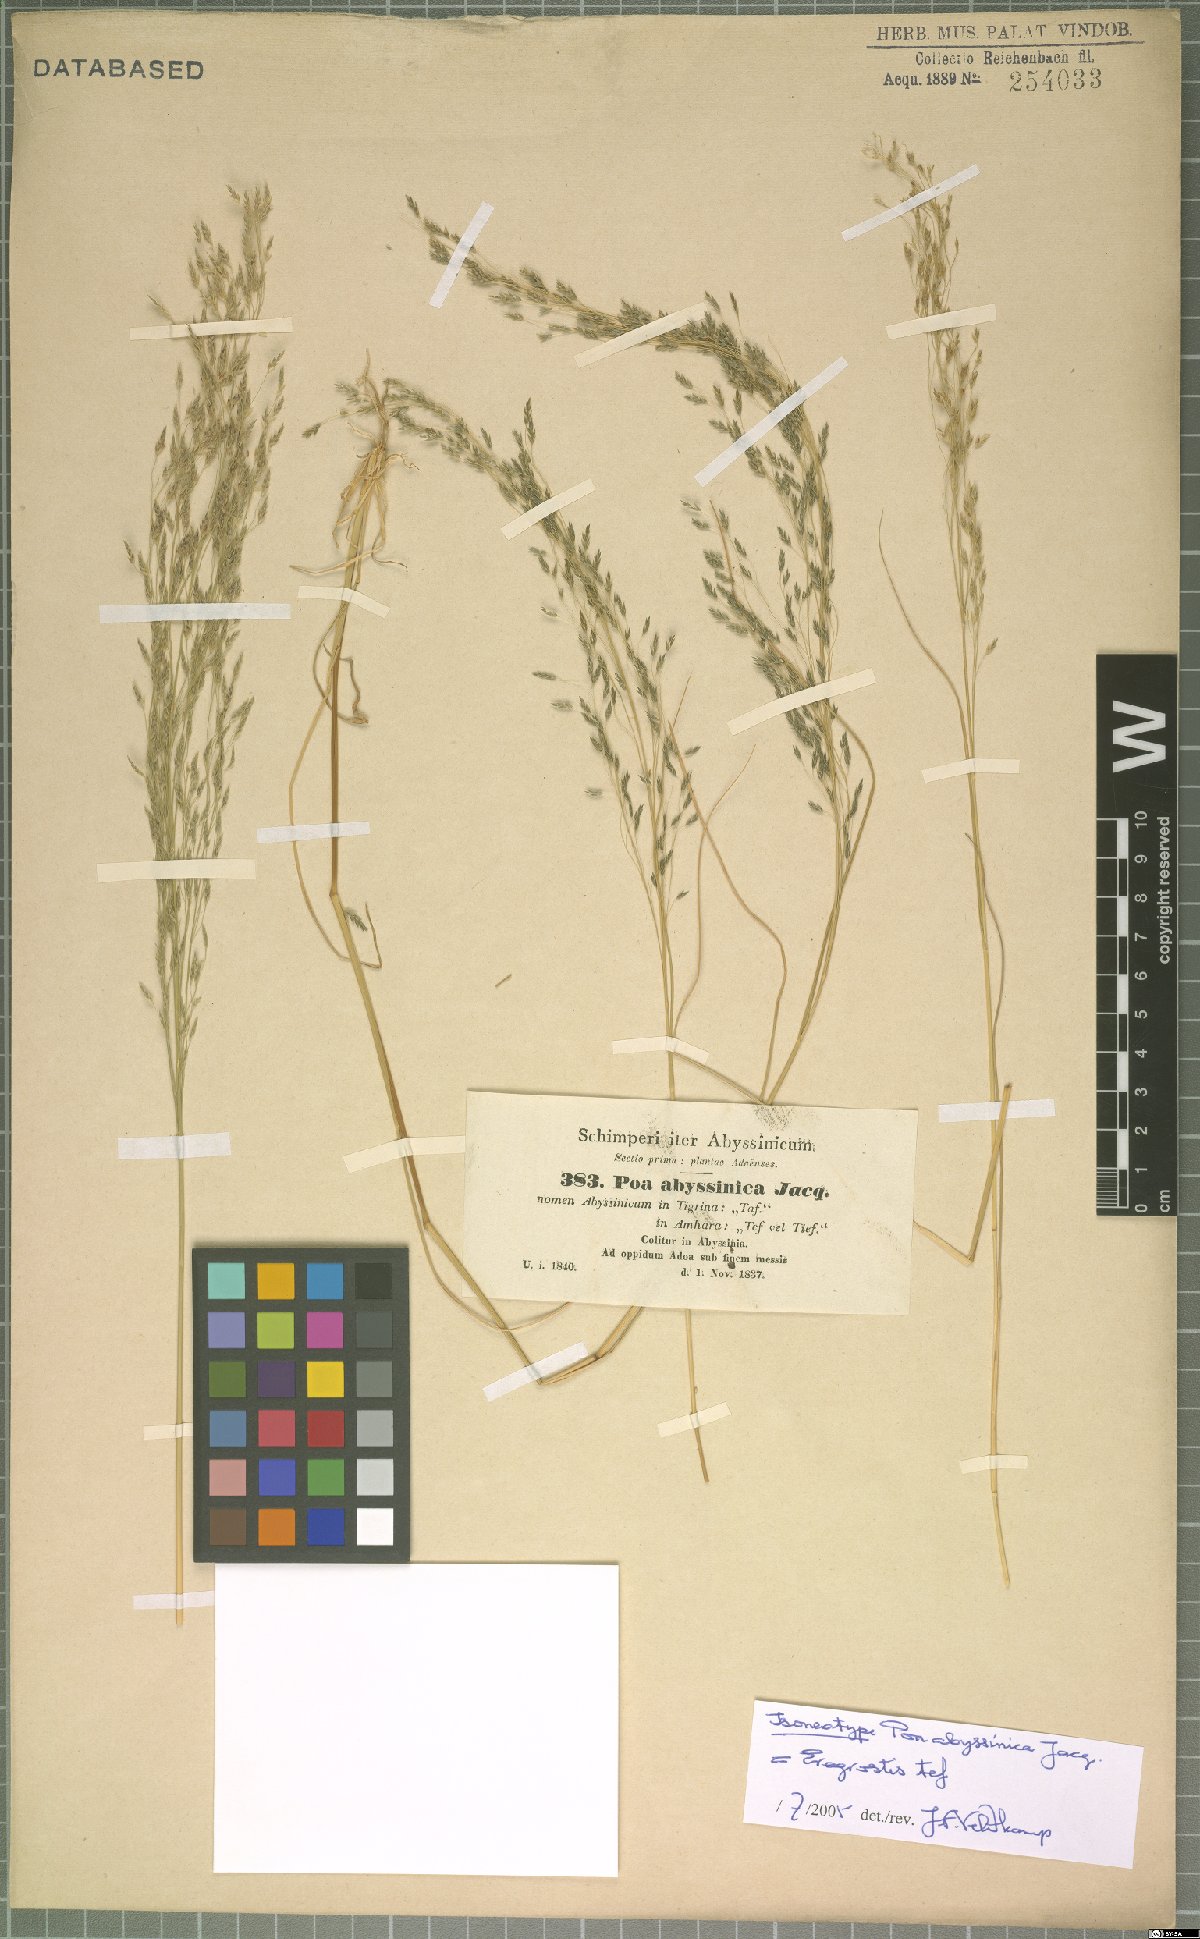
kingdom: Plantae
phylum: Tracheophyta
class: Liliopsida
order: Poales
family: Poaceae
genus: Eragrostis
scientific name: Eragrostis tef
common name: Teff
